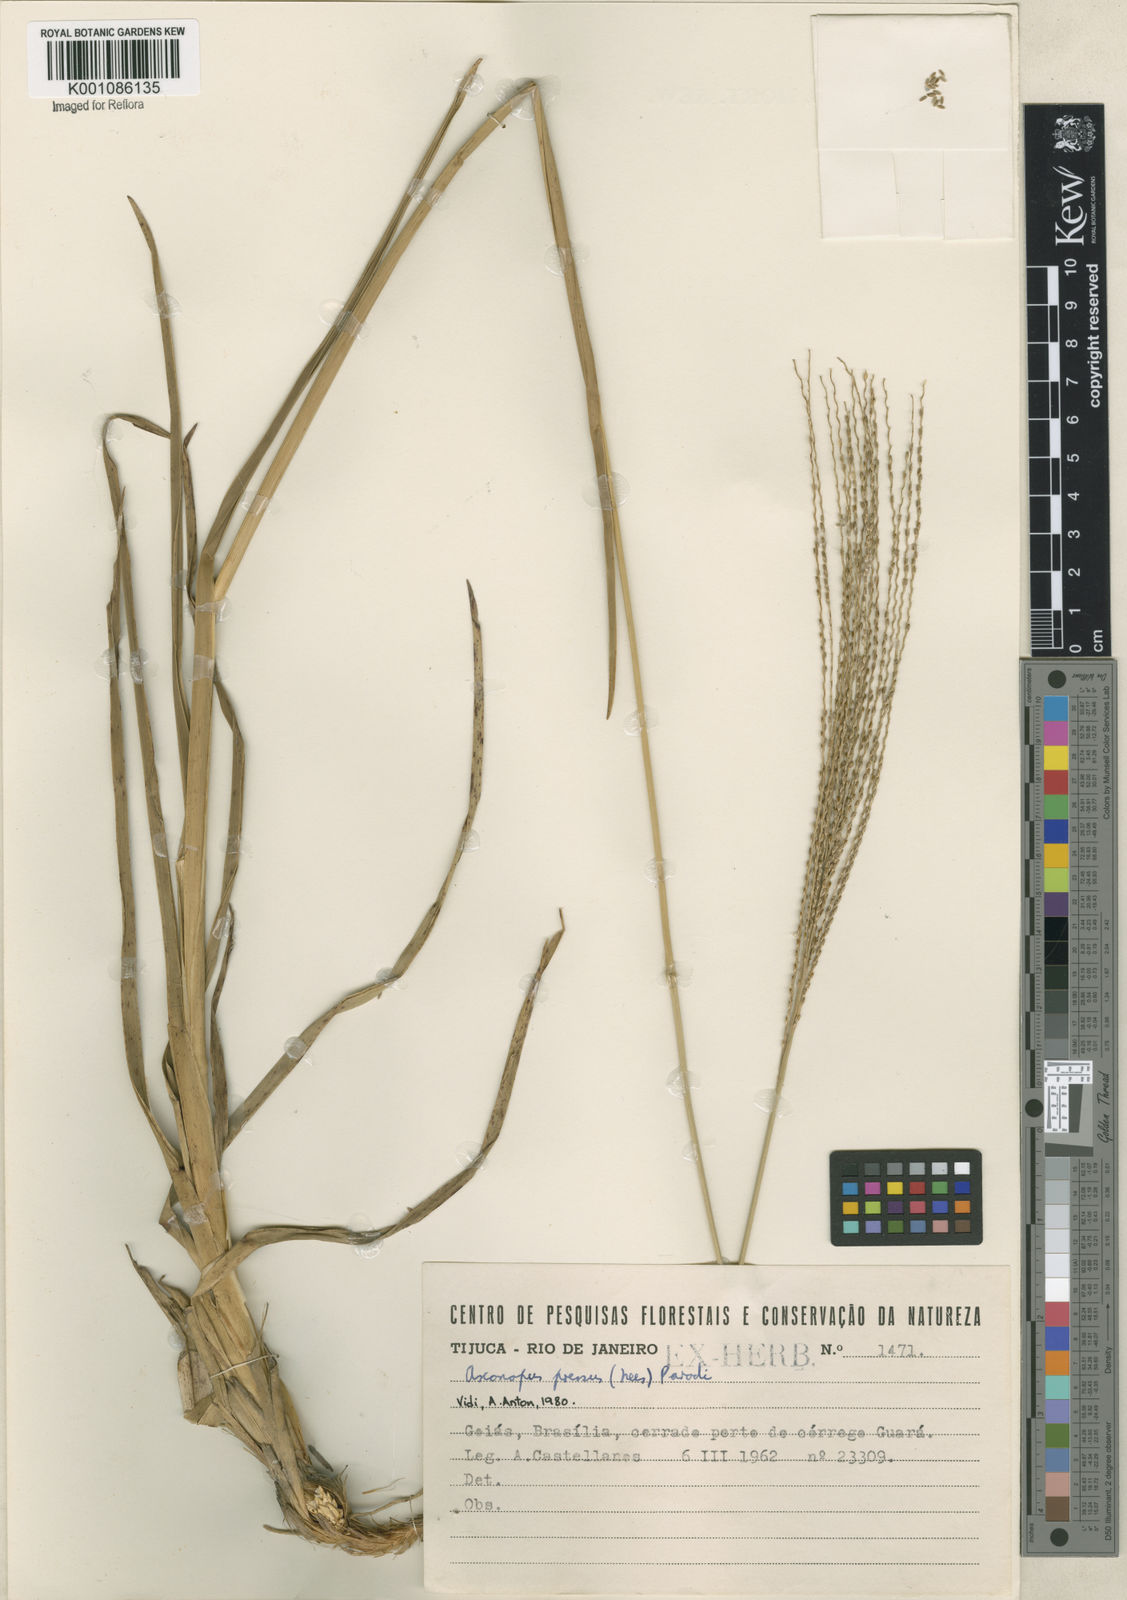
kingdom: Plantae
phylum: Tracheophyta
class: Liliopsida
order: Poales
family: Poaceae
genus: Axonopus
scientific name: Axonopus pressus
